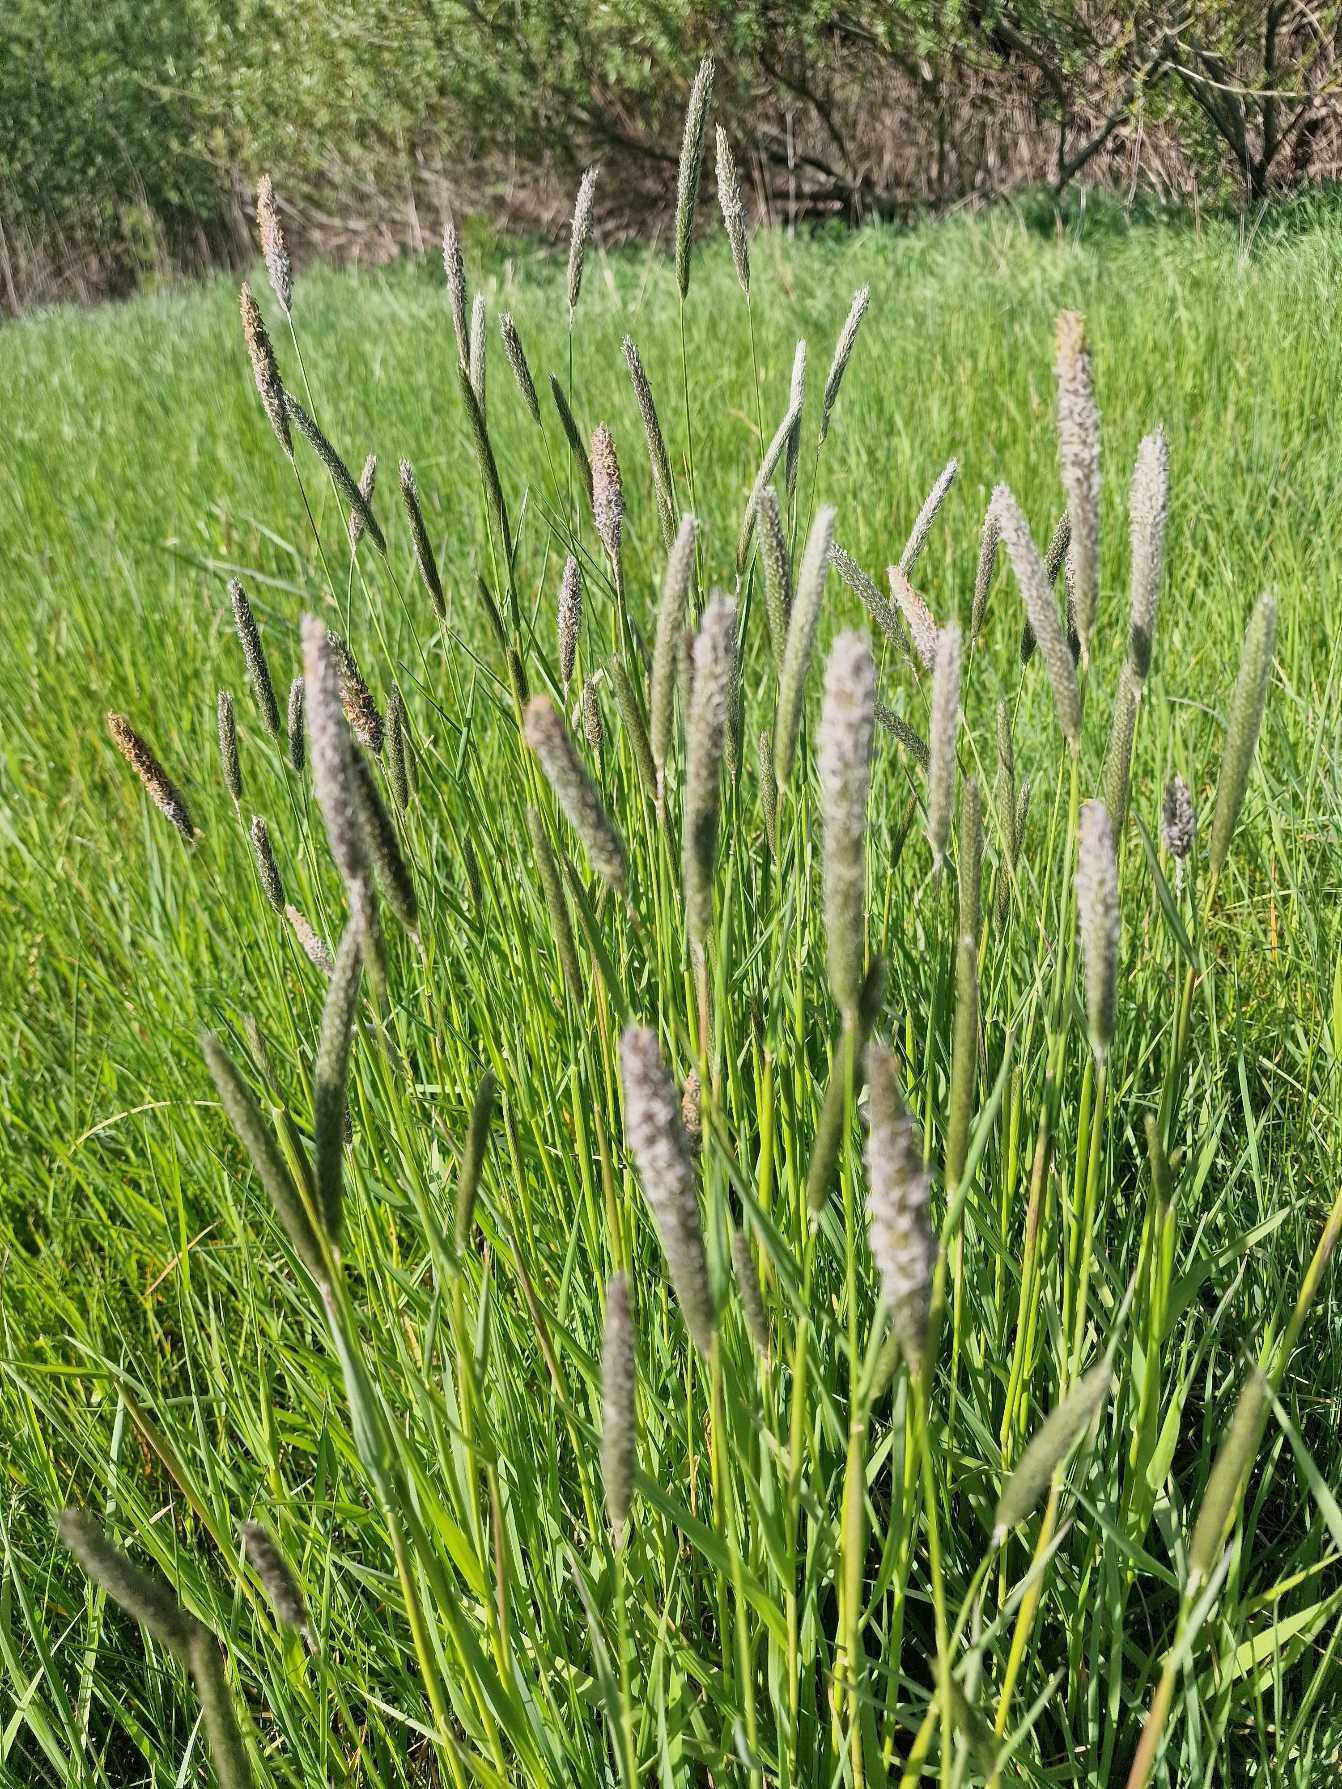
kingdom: Plantae
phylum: Tracheophyta
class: Liliopsida
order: Poales
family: Poaceae
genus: Alopecurus
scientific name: Alopecurus pratensis
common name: Eng-rævehale
